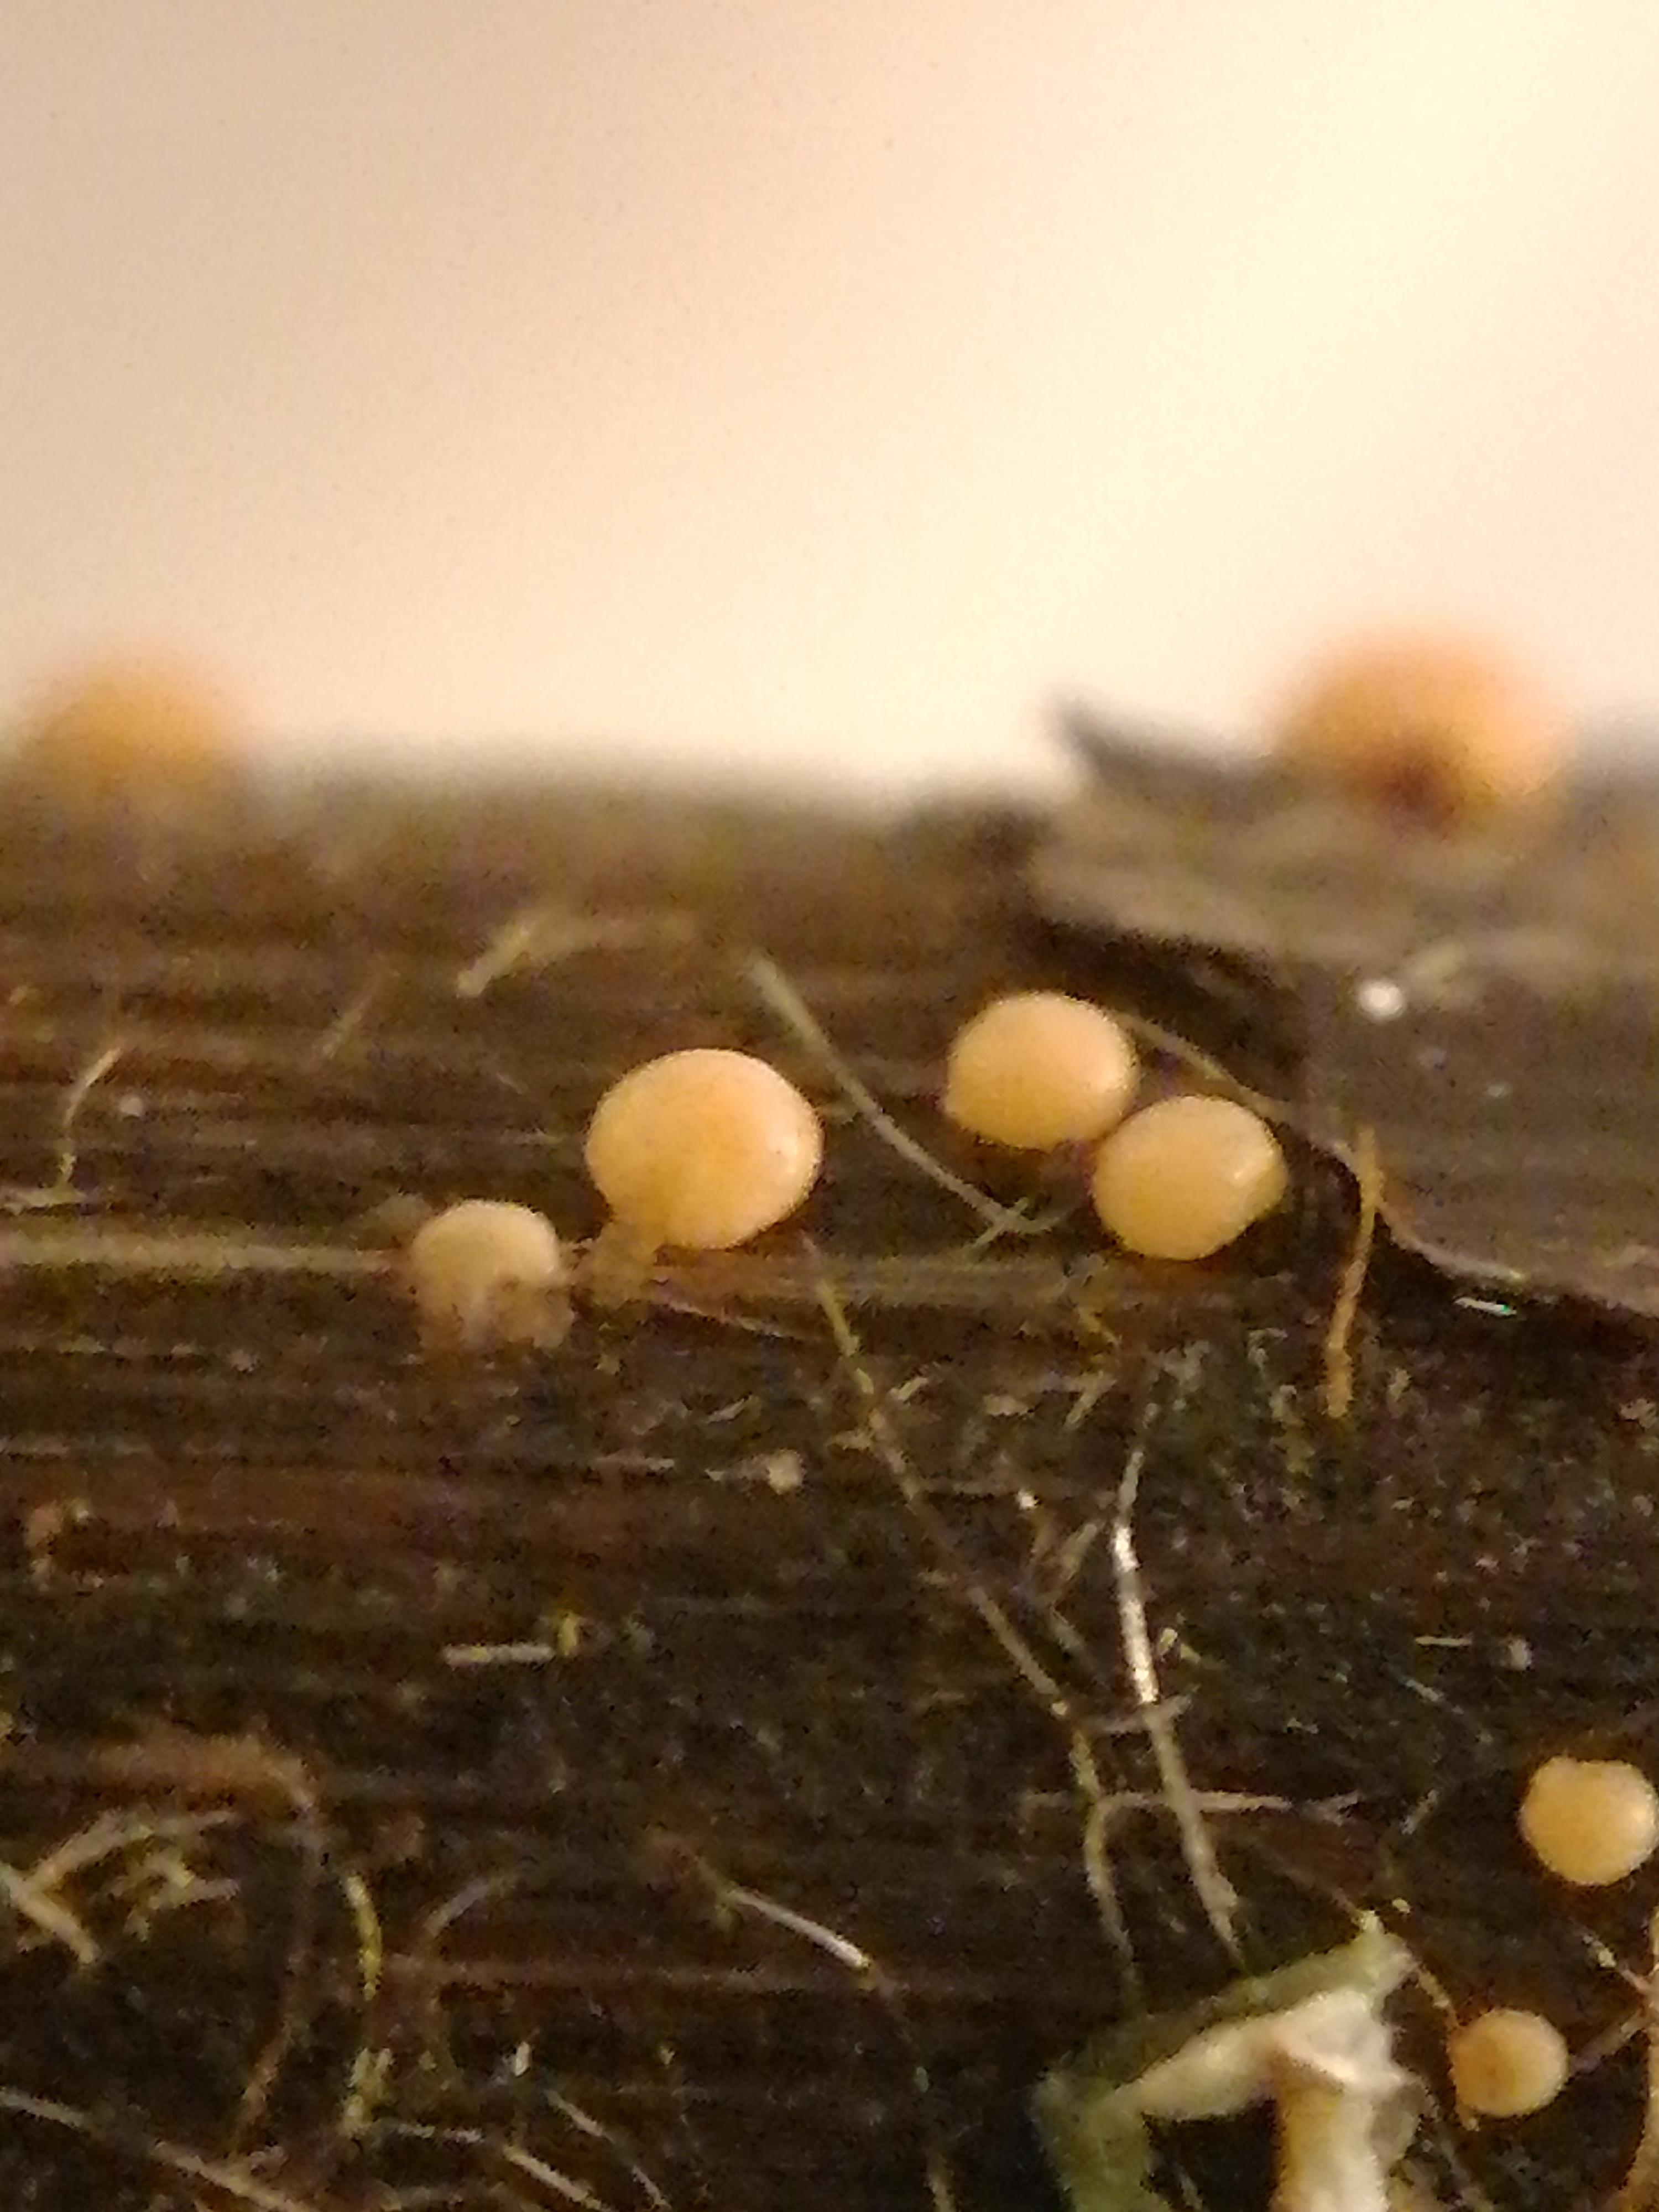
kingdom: Fungi
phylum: Ascomycota
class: Sordariomycetes
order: Hypocreales
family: Nectriaceae
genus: Nectria
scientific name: Nectria
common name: cinnobersvamp
